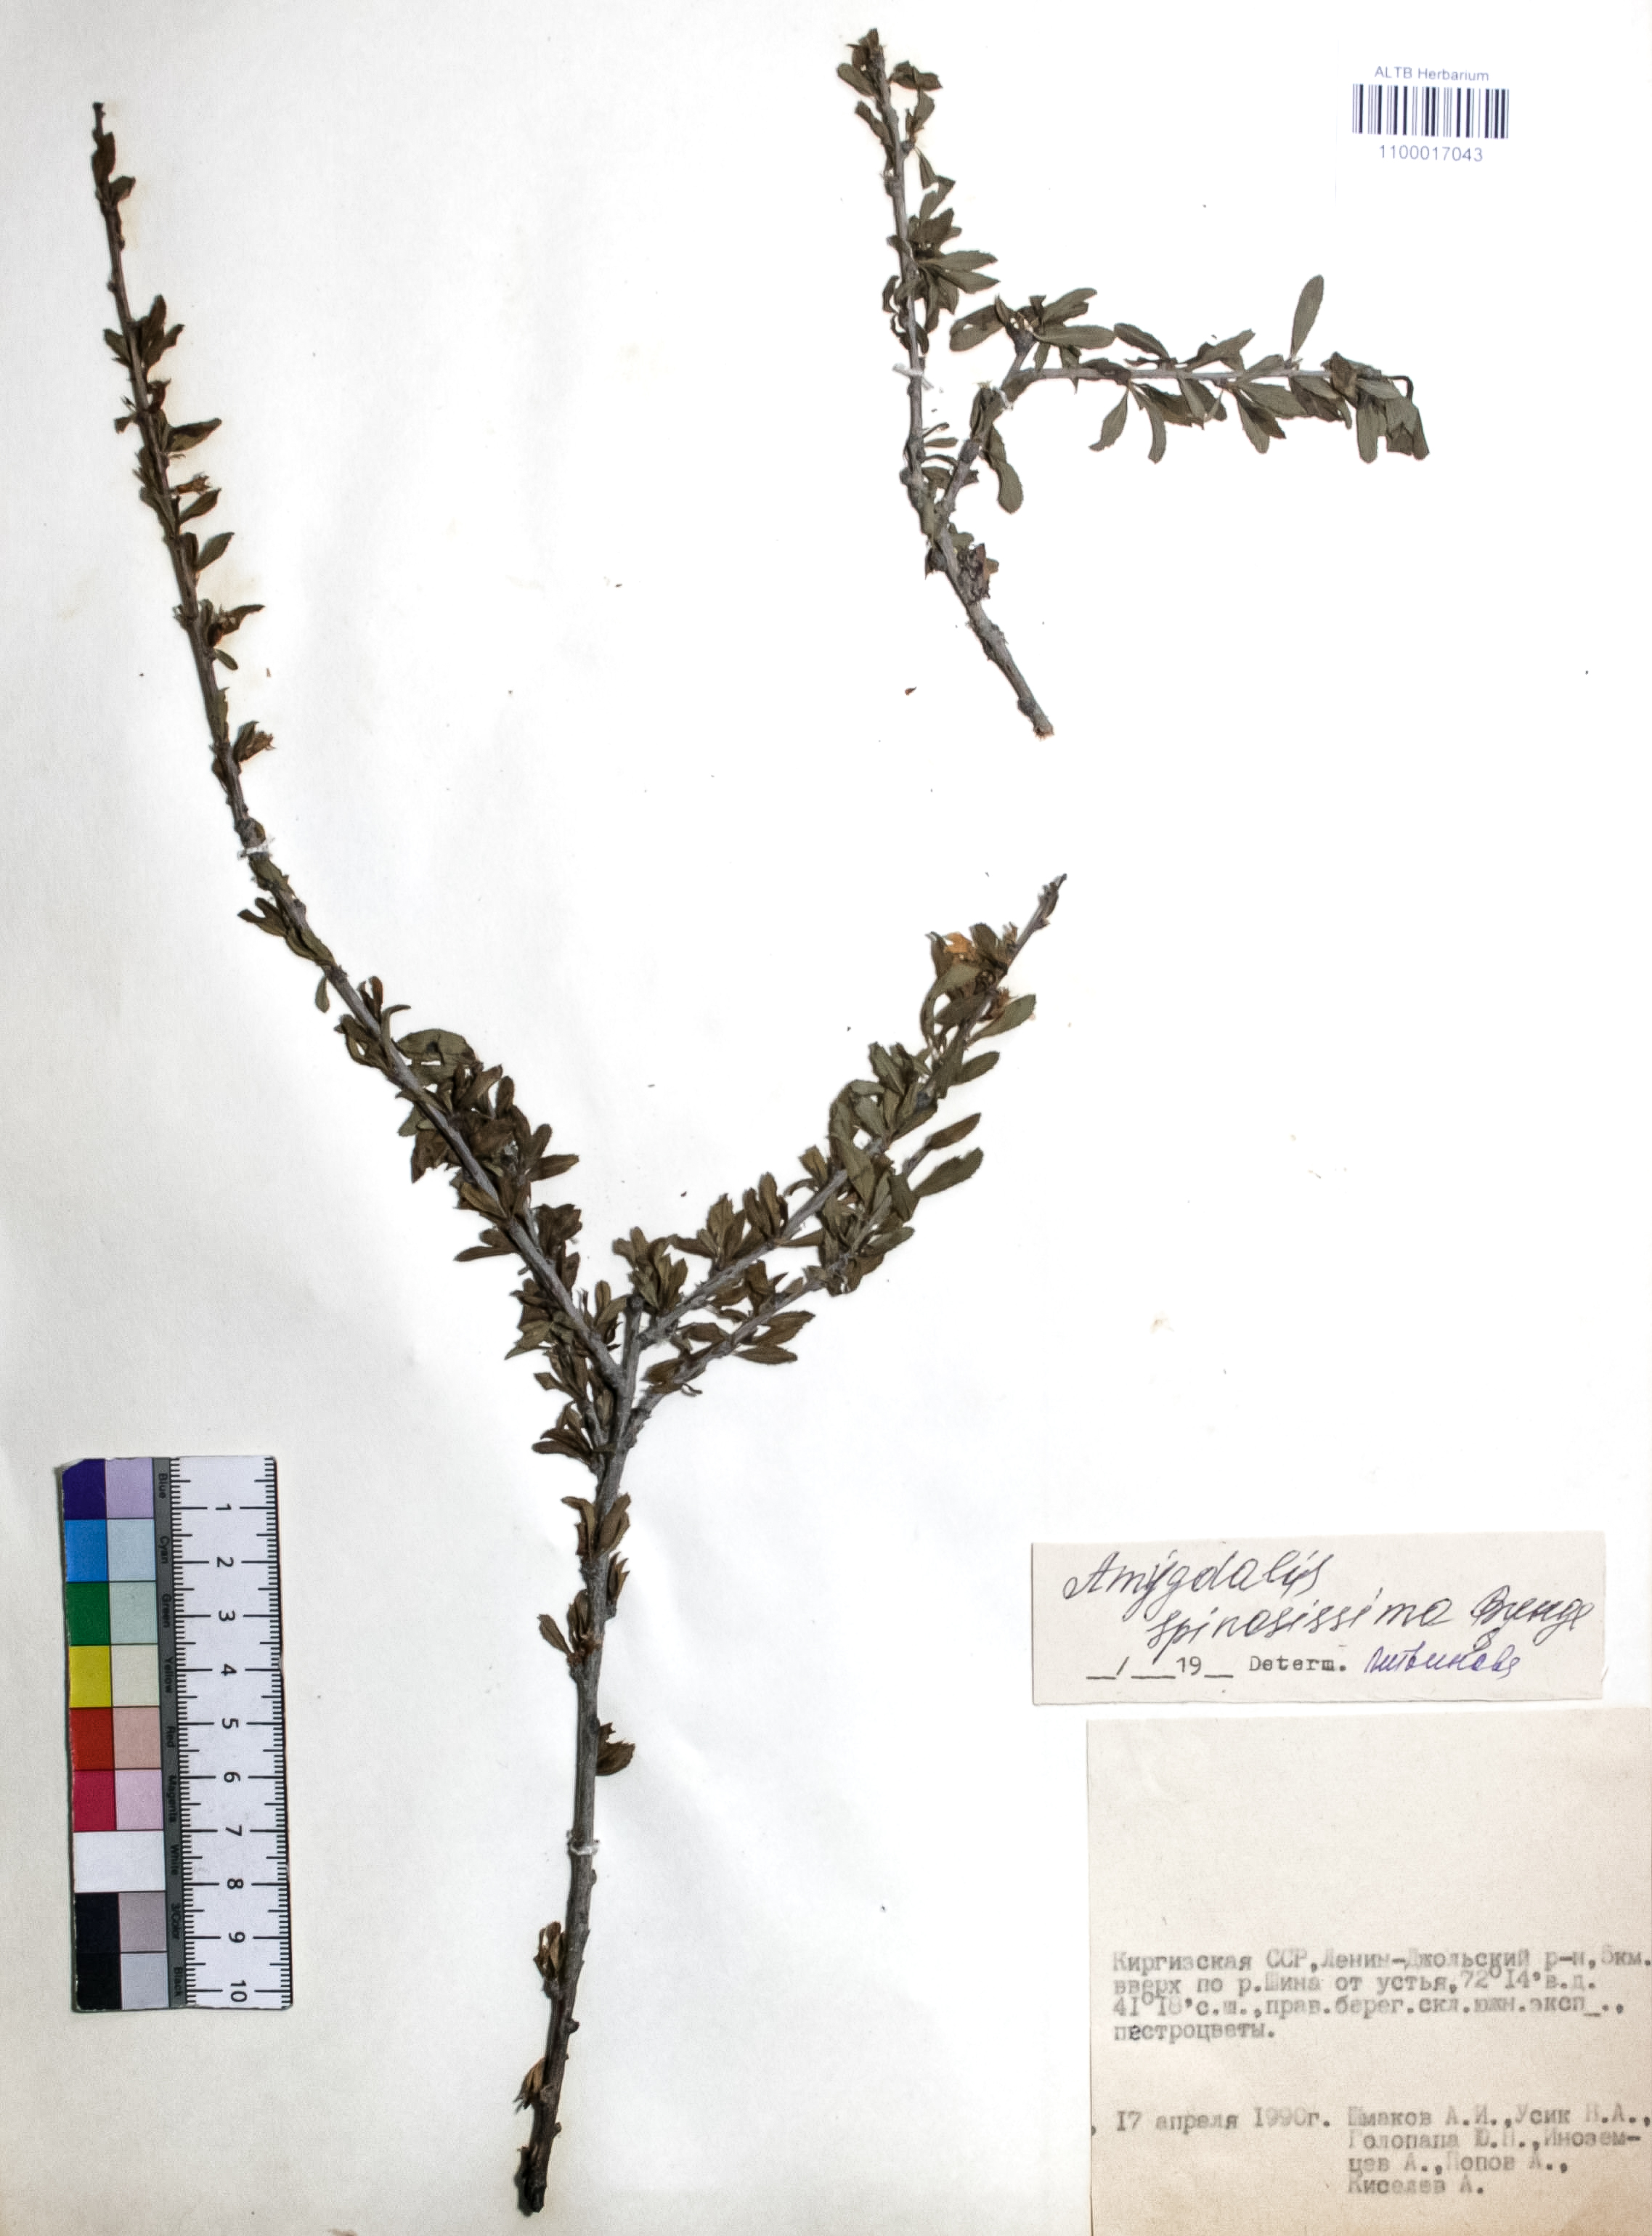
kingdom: Plantae
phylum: Tracheophyta
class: Magnoliopsida
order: Rosales
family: Rosaceae
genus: Prunus
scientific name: Prunus spinosissima
